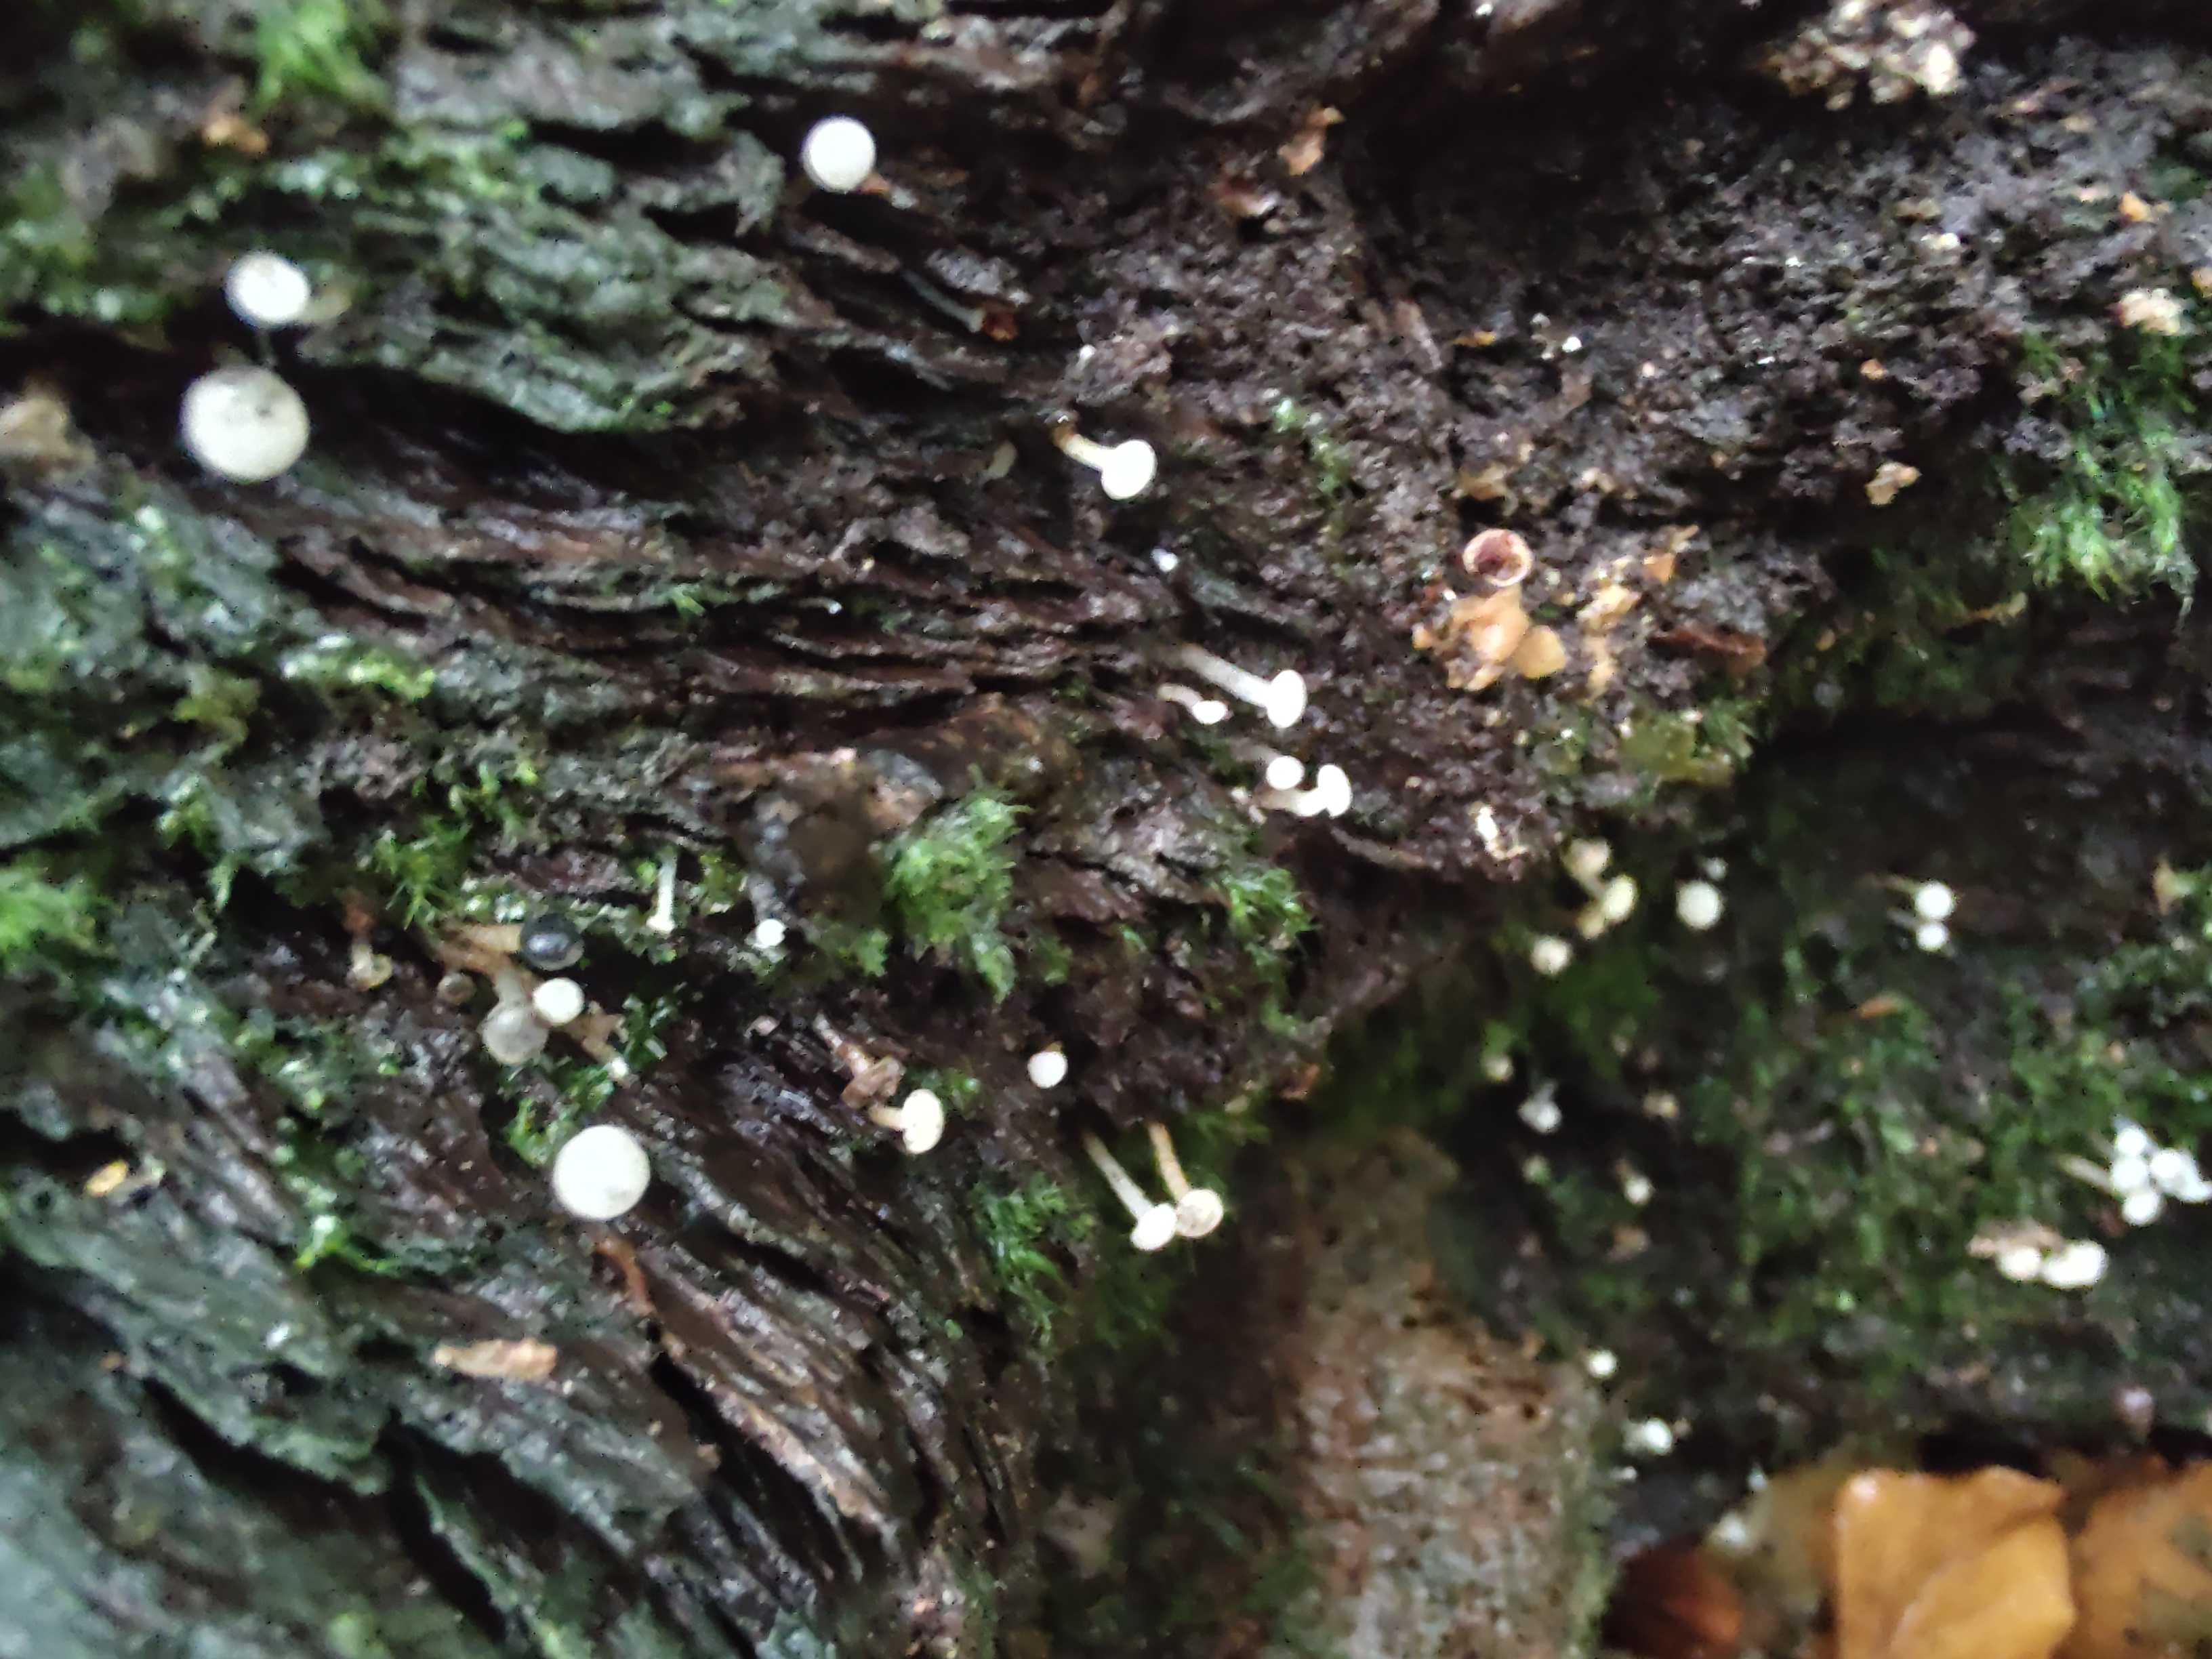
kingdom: Fungi
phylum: Ascomycota
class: Leotiomycetes
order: Helotiales
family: Tricladiaceae
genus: Cudoniella
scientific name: Cudoniella acicularis
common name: ege-dyndskive
